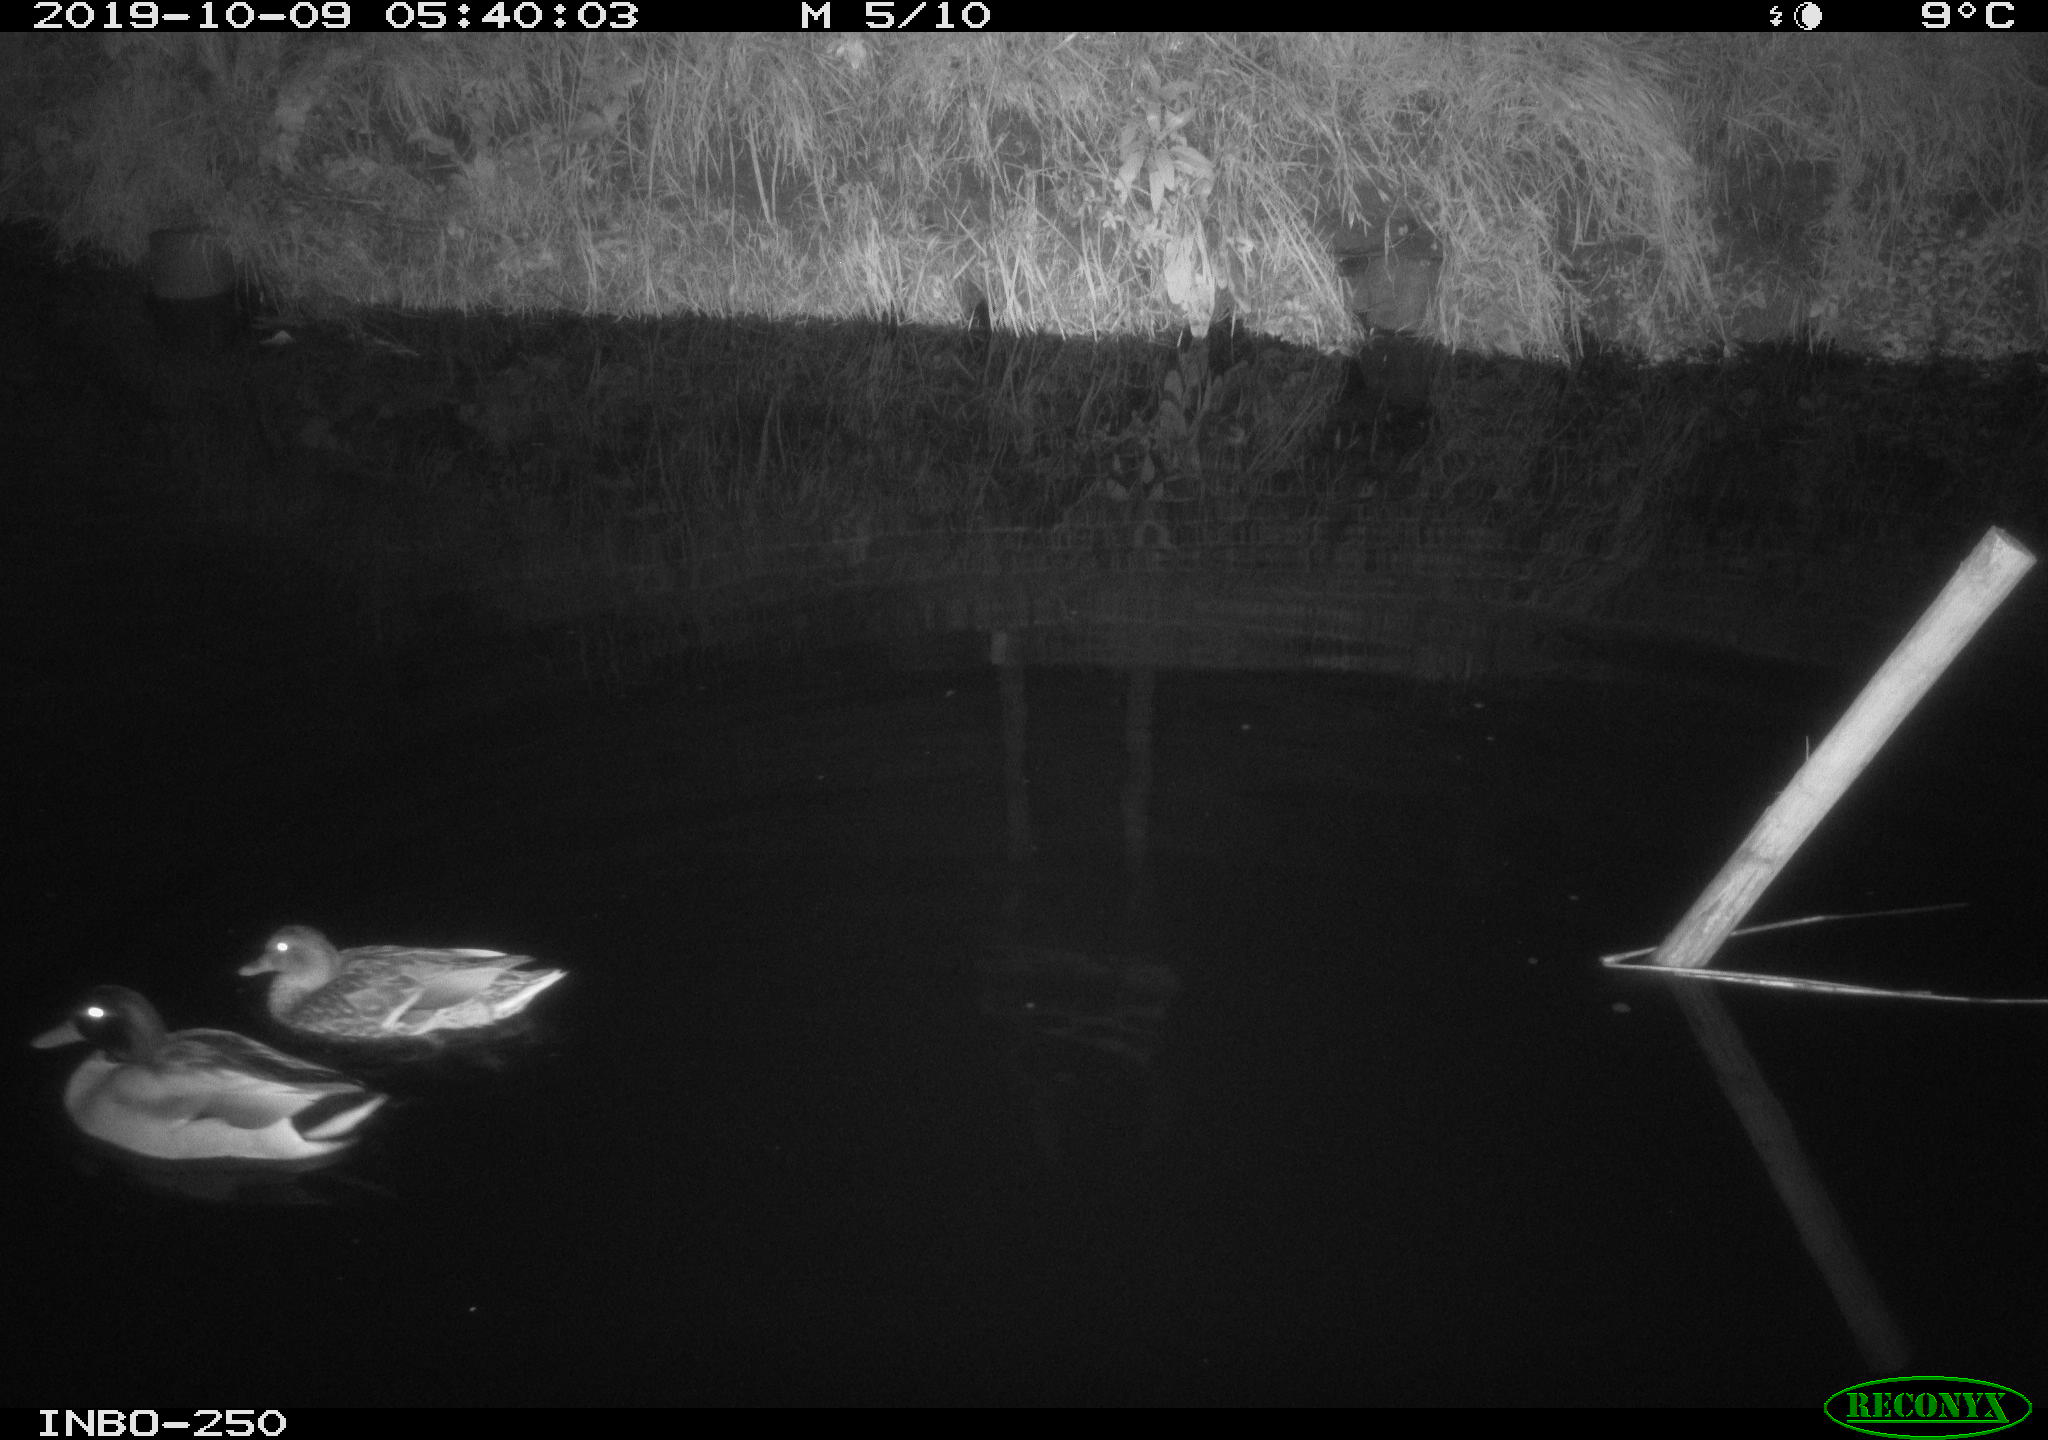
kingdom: Animalia
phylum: Chordata
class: Aves
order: Anseriformes
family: Anatidae
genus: Anas
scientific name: Anas platyrhynchos
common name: Mallard
